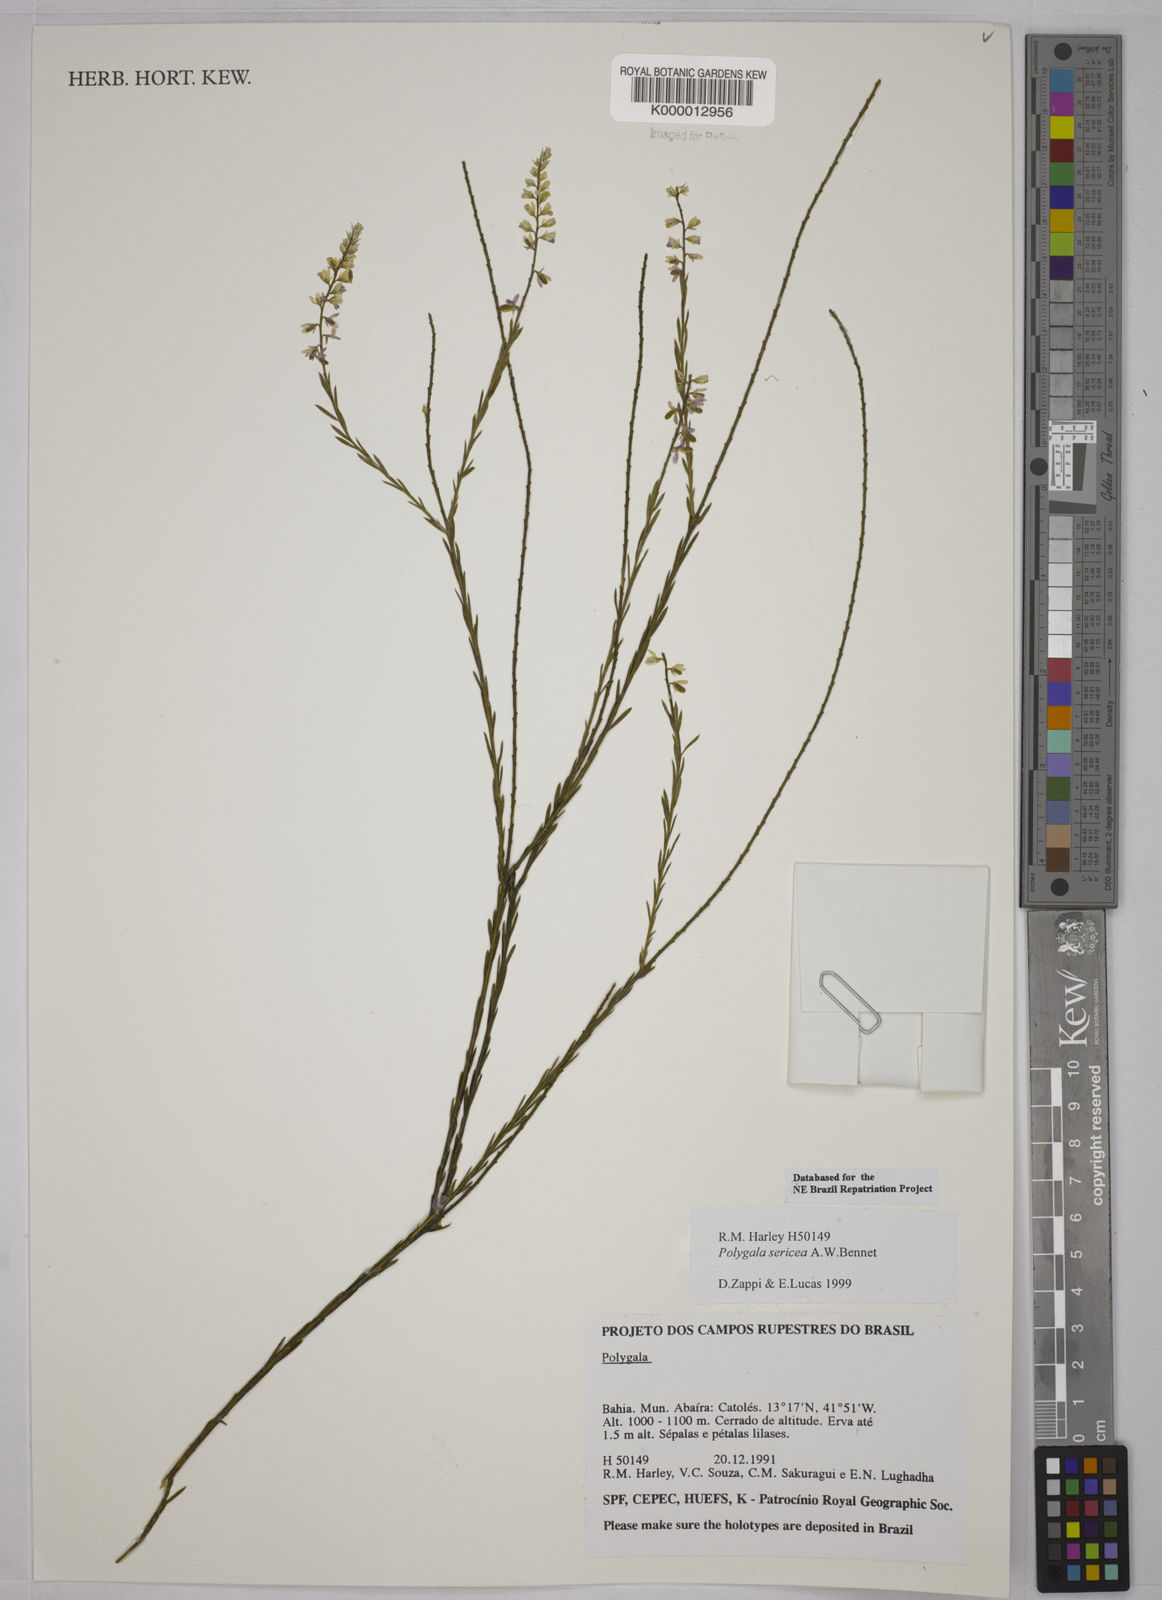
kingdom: Plantae
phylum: Tracheophyta
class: Magnoliopsida
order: Fabales
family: Polygalaceae
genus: Polygala
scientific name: Polygala sericea
